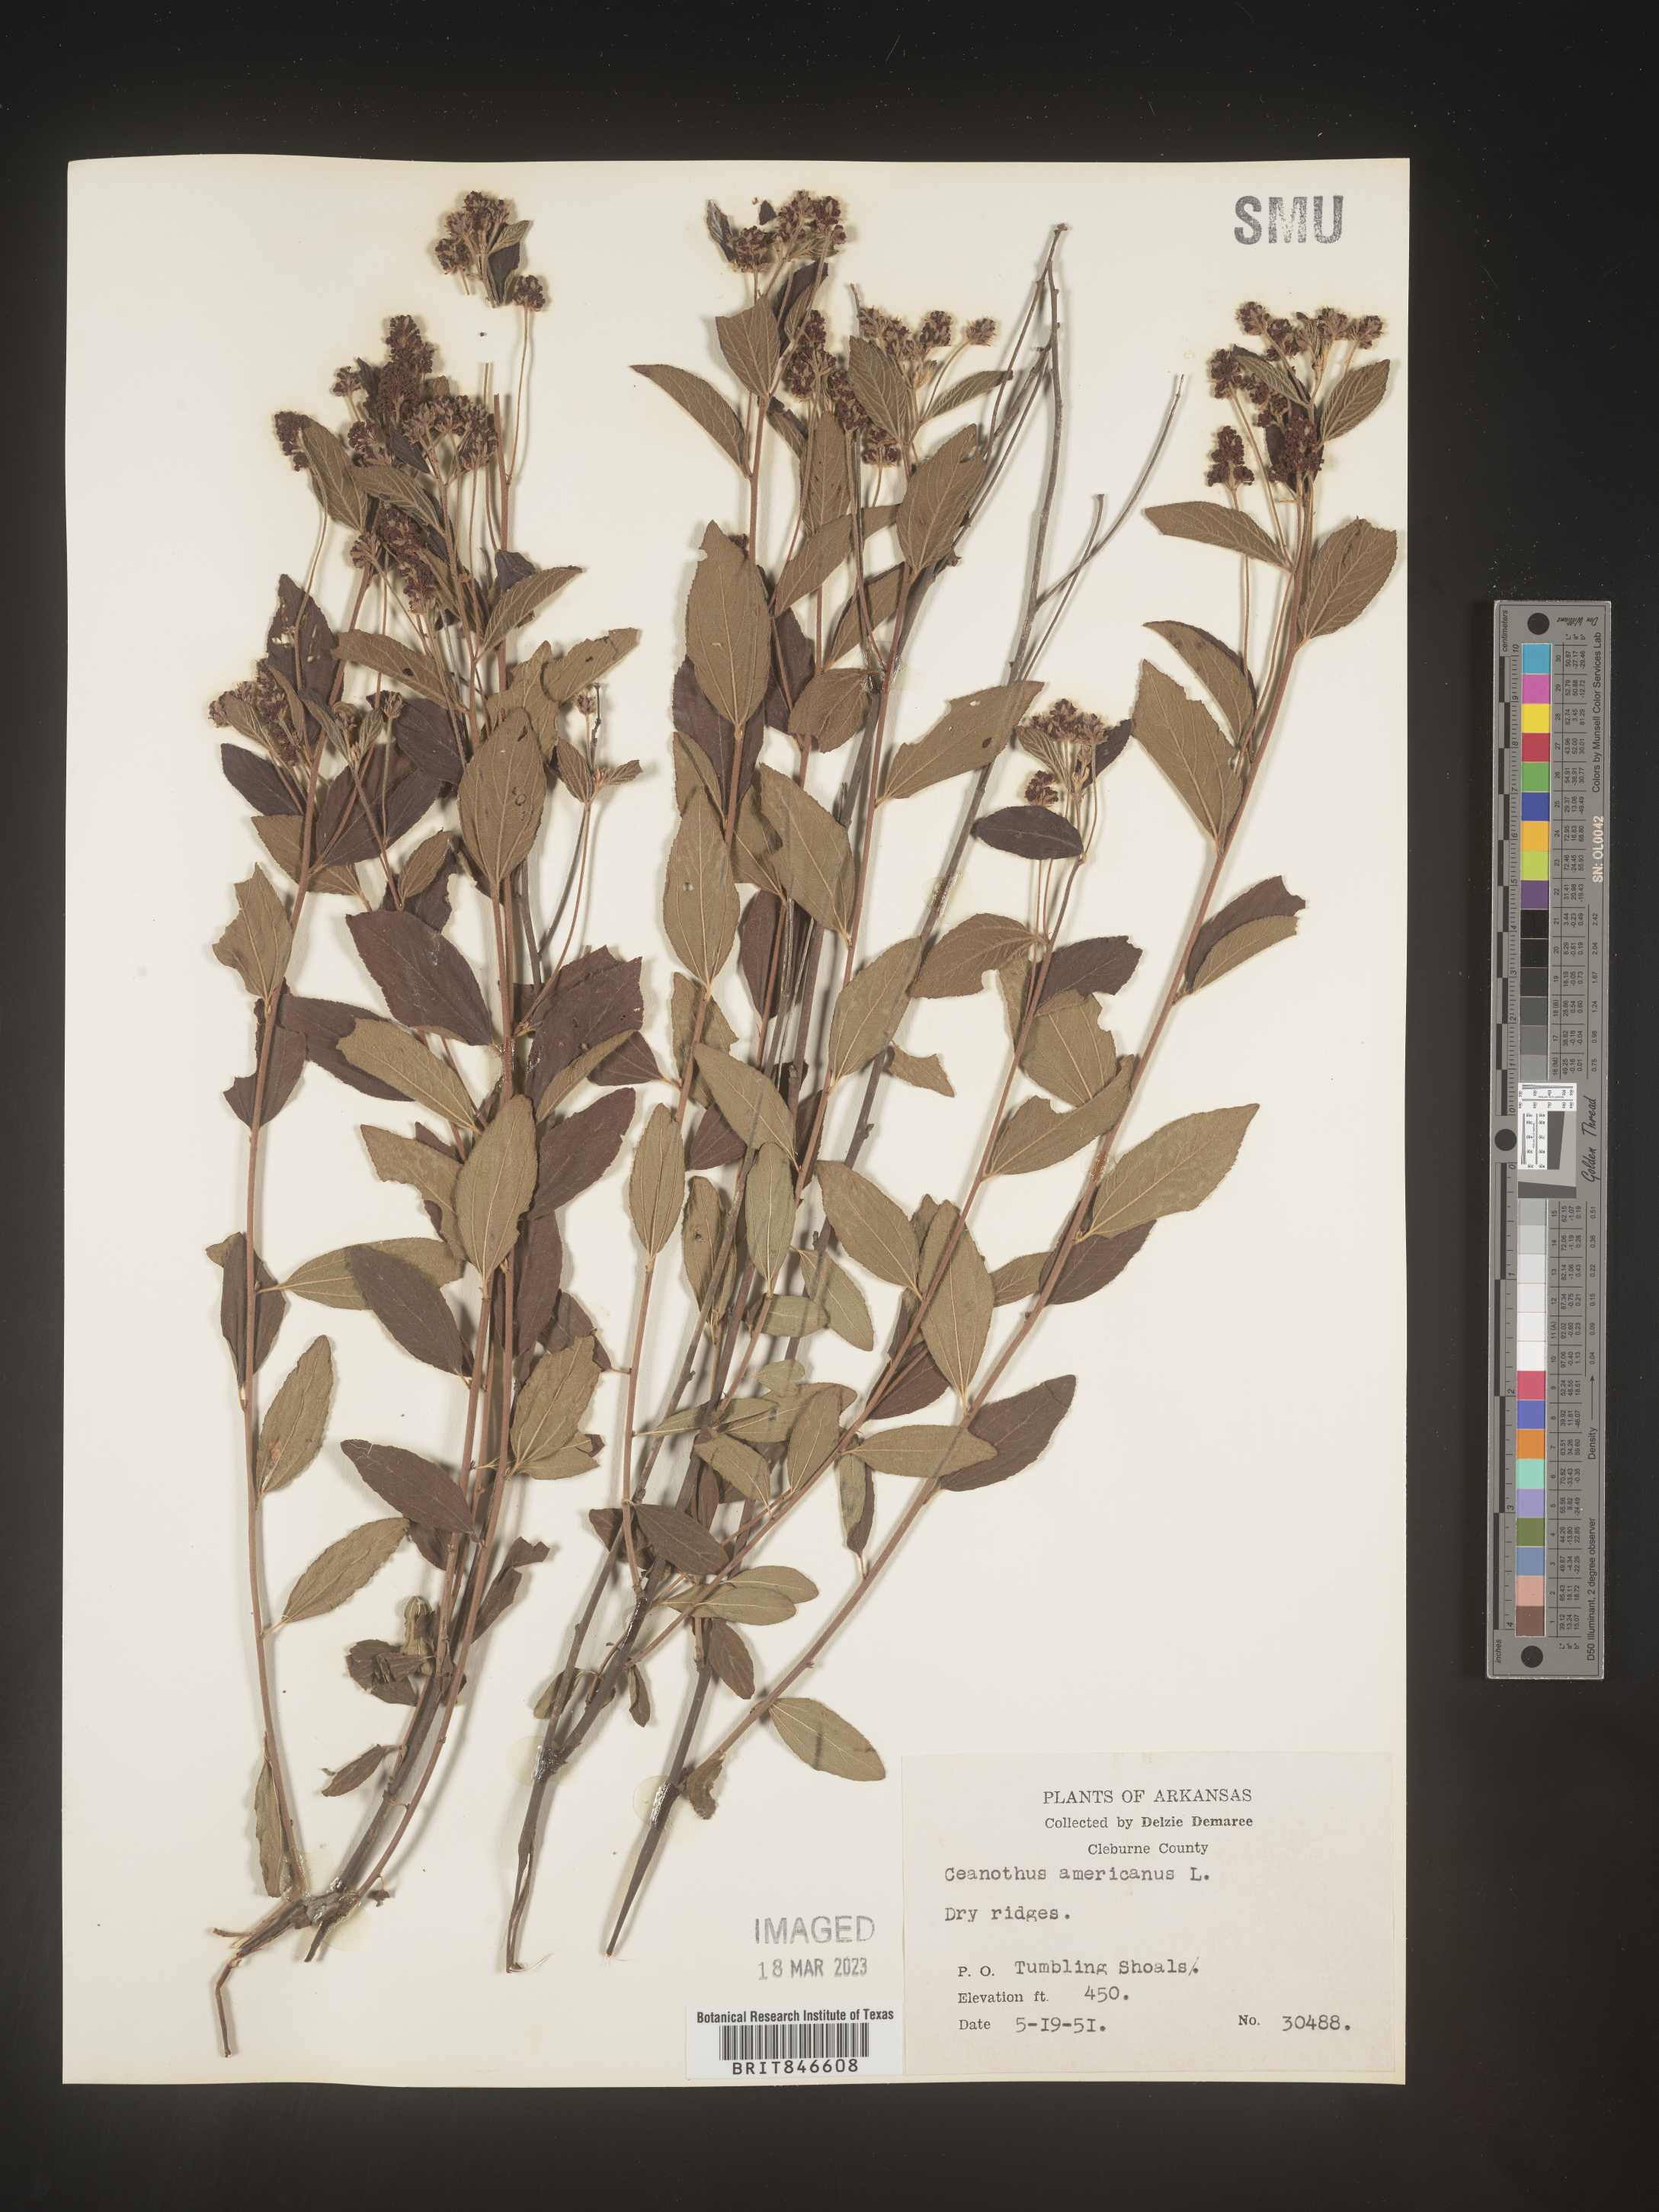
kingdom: Plantae
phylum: Tracheophyta
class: Magnoliopsida
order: Rosales
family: Rhamnaceae
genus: Ceanothus
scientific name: Ceanothus americanus
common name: Redroot
